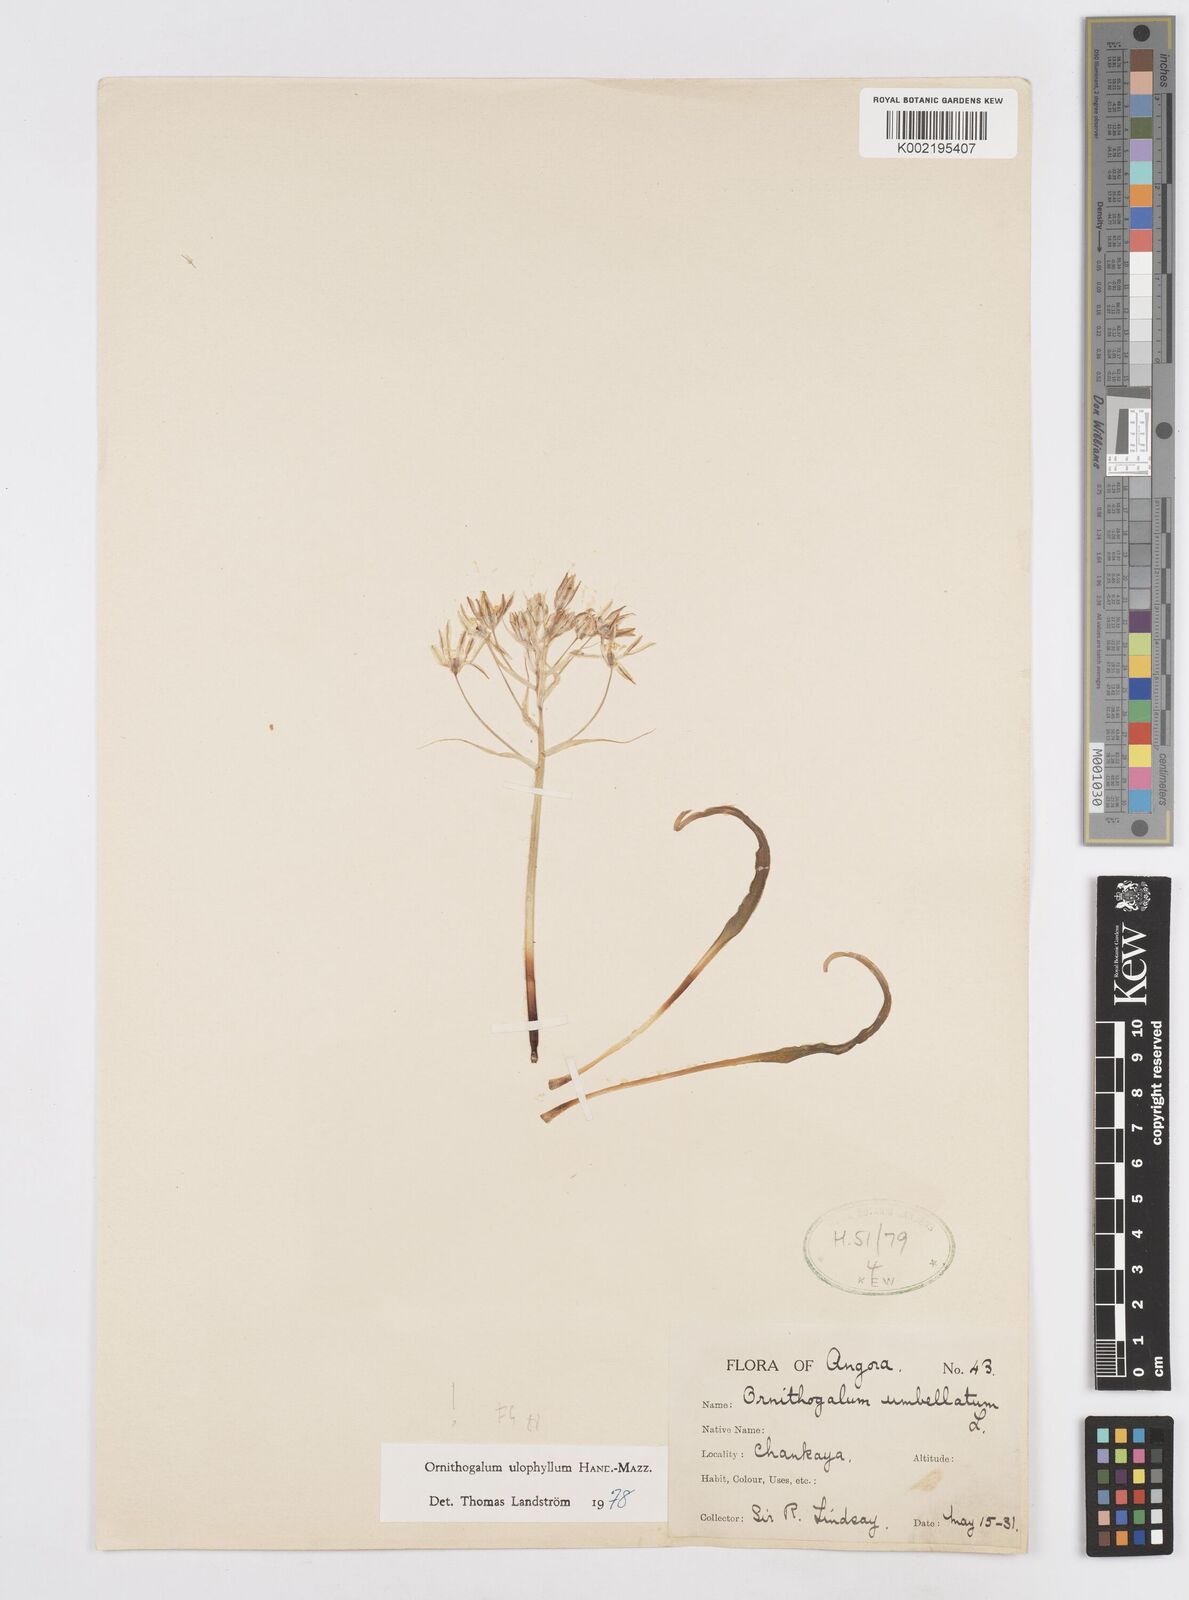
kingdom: Plantae
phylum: Tracheophyta
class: Liliopsida
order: Asparagales
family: Asparagaceae
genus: Ornithogalum
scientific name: Ornithogalum neurostegium
